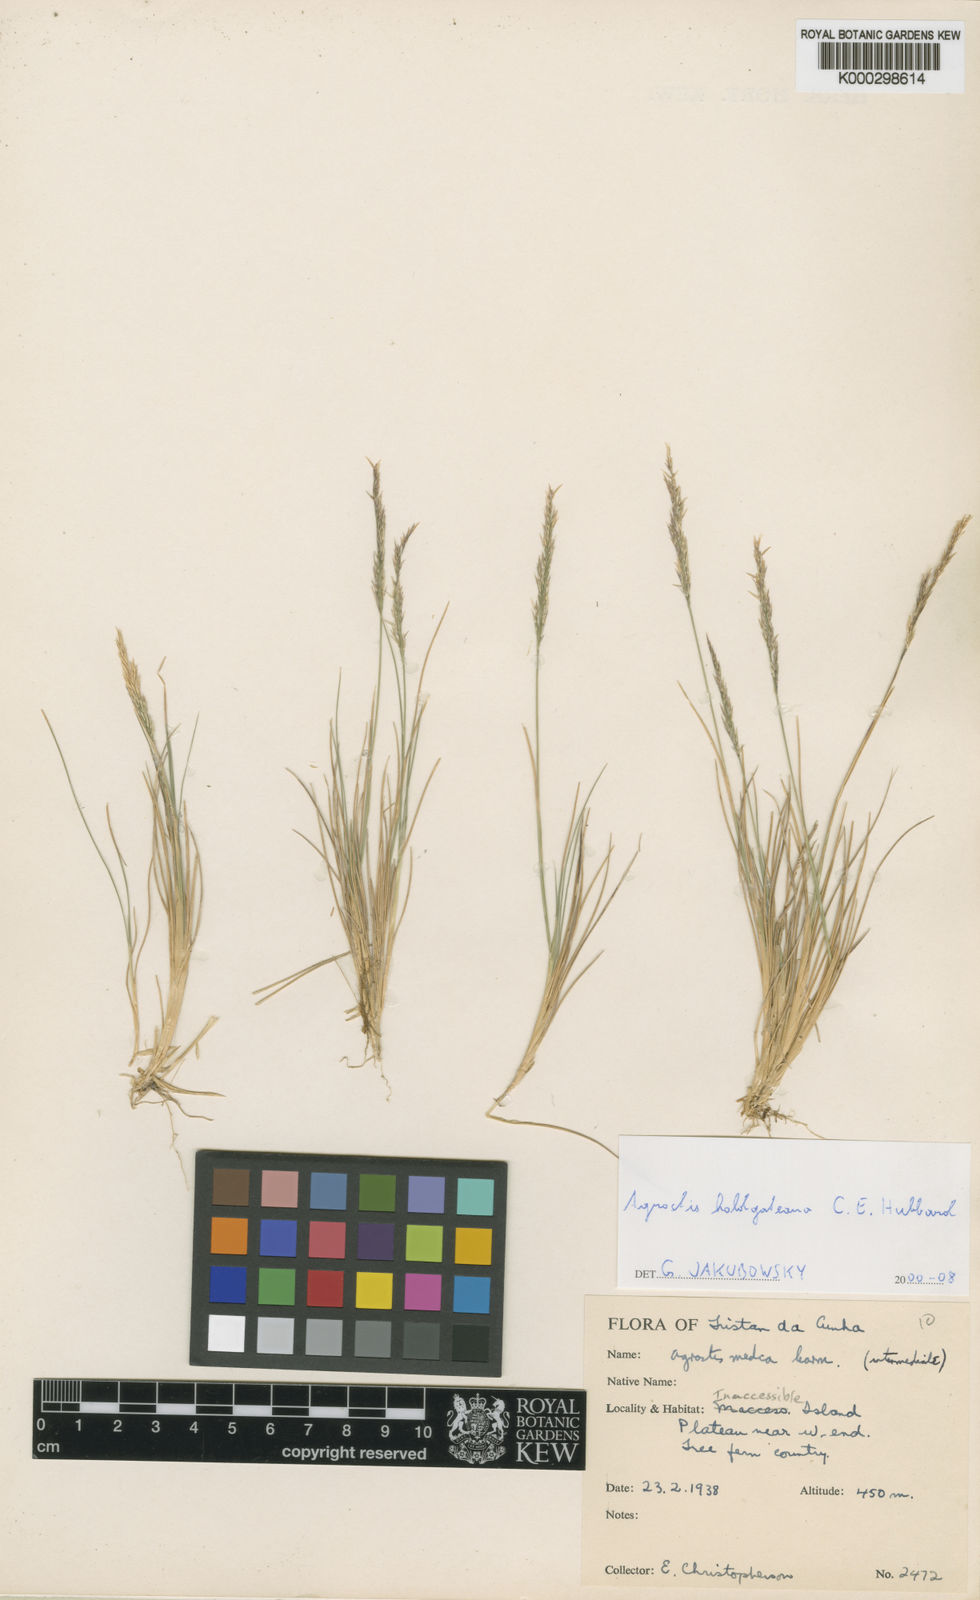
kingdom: Plantae
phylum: Tracheophyta
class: Liliopsida
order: Poales
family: Poaceae
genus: Agrostis
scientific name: Agrostis holgateana
